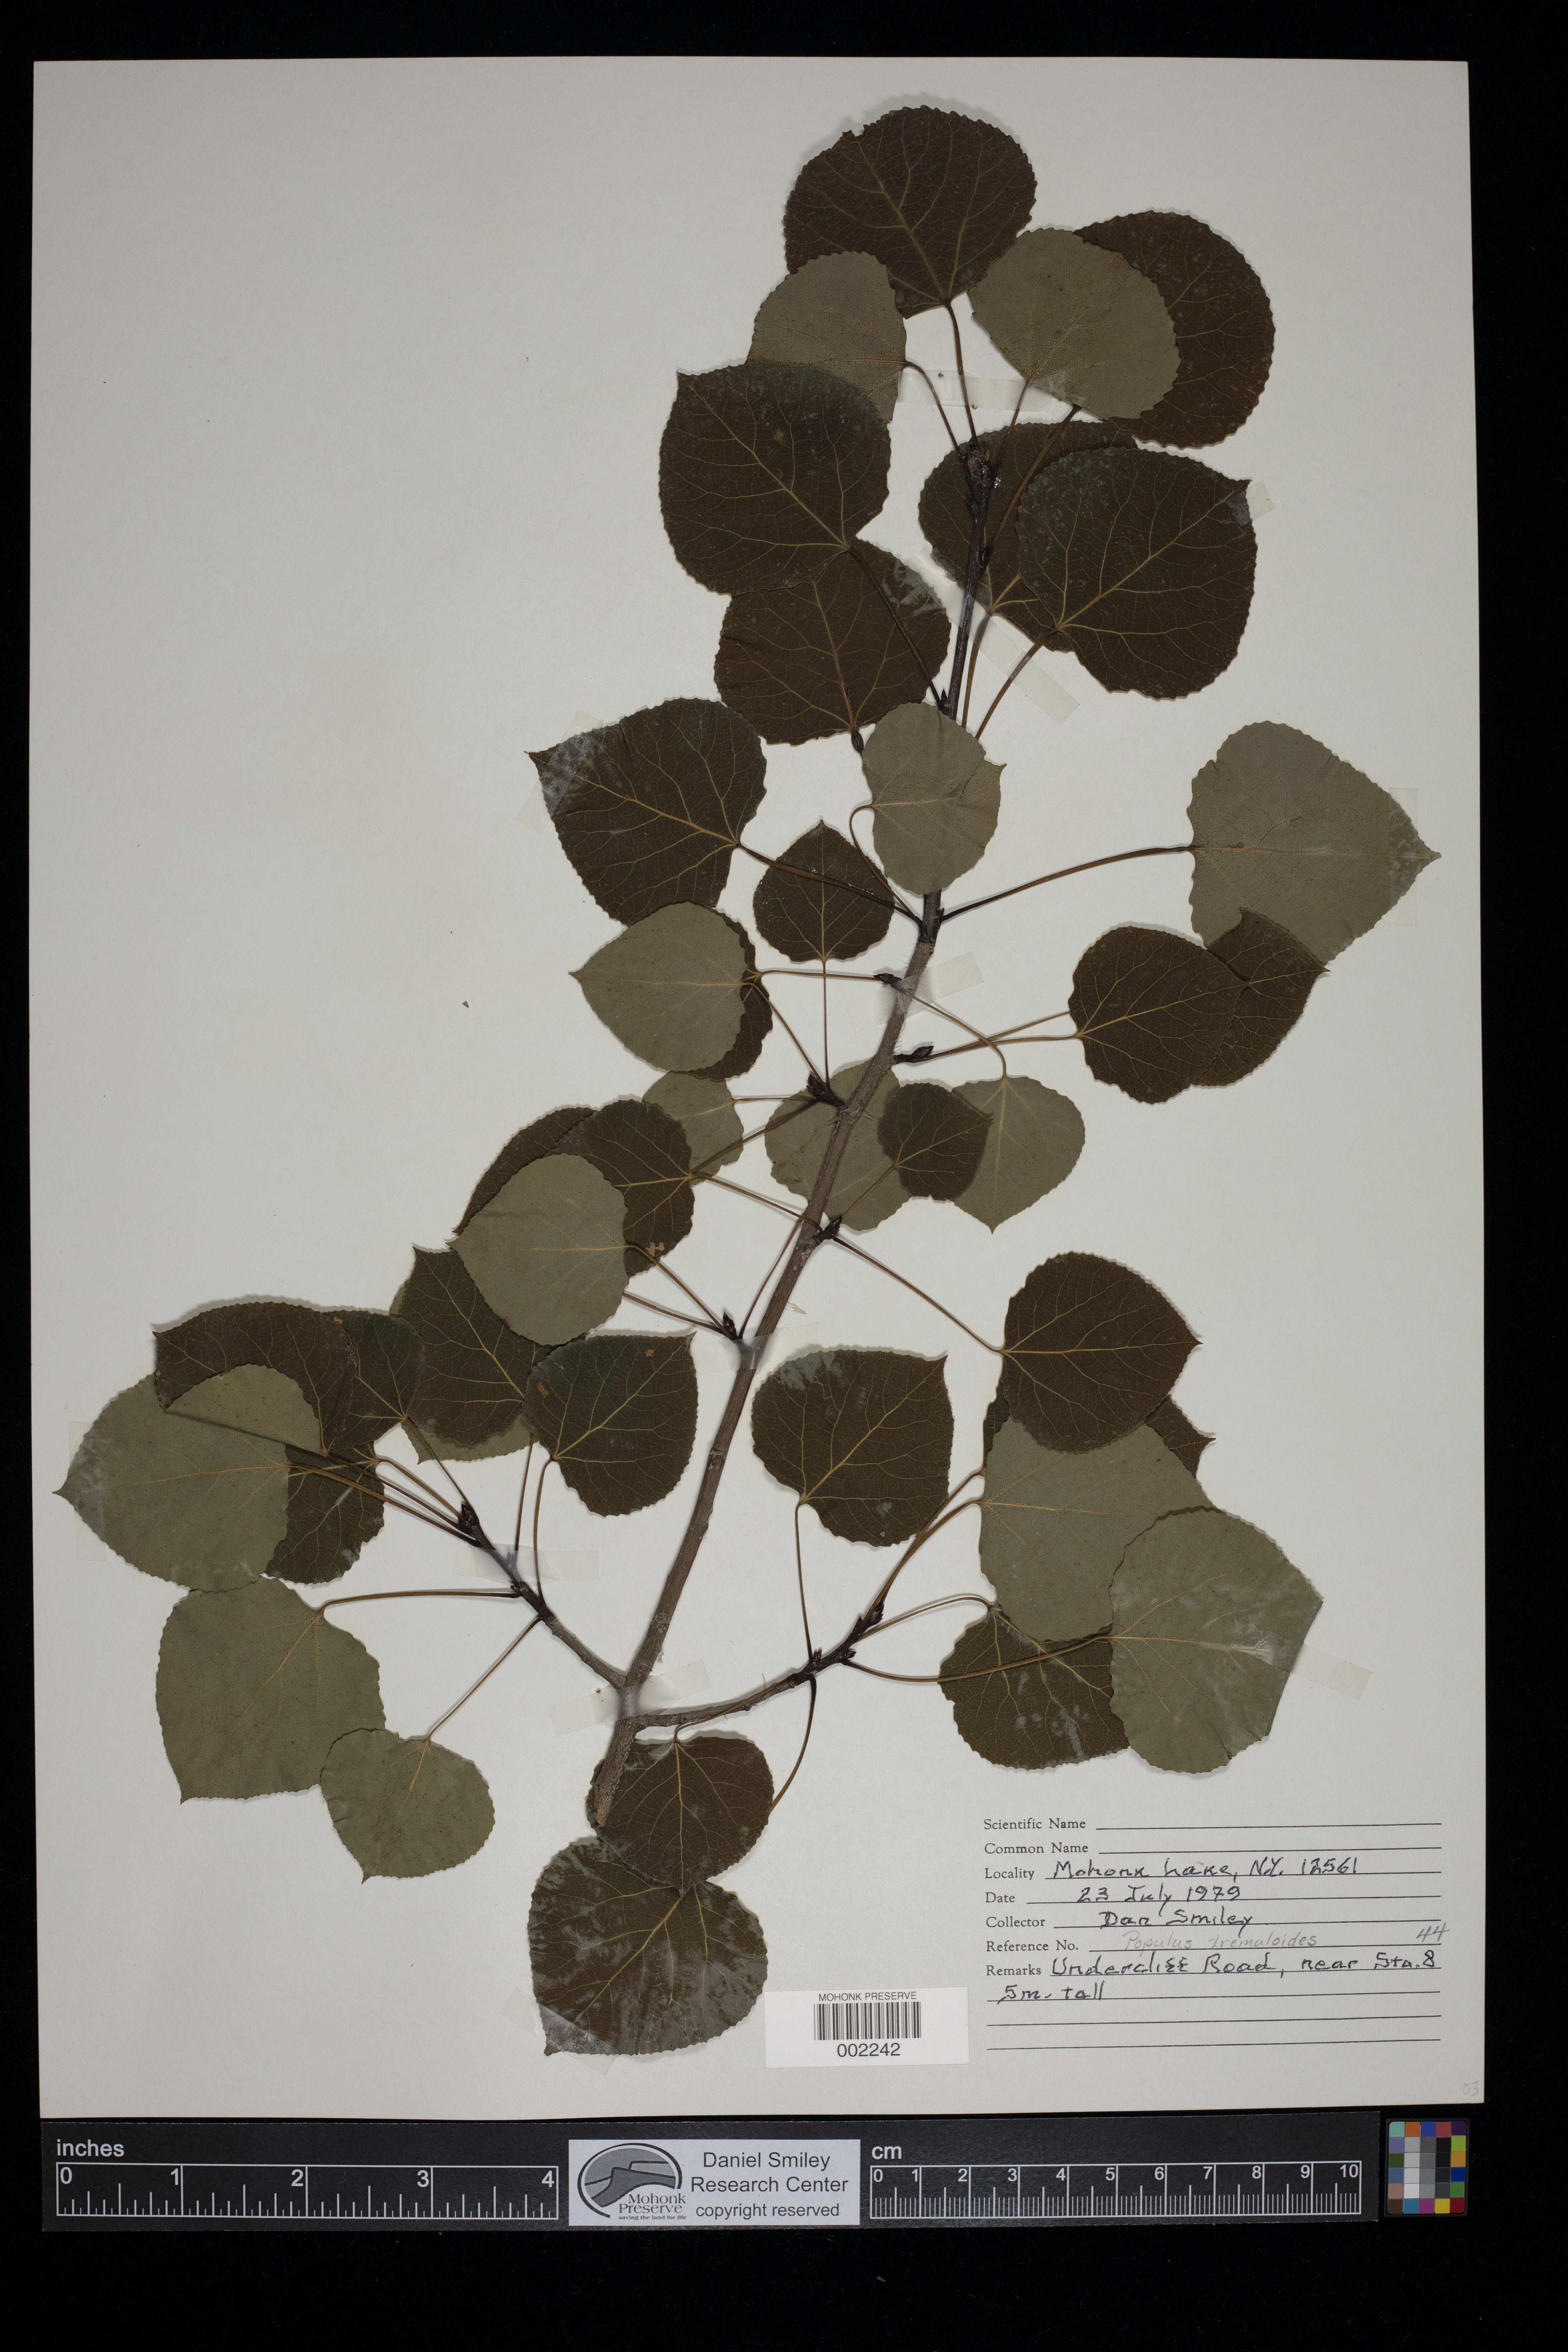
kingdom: Plantae
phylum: Tracheophyta
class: Magnoliopsida
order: Malpighiales
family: Salicaceae
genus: Populus
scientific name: Populus tremuloides
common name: Quaking aspen
